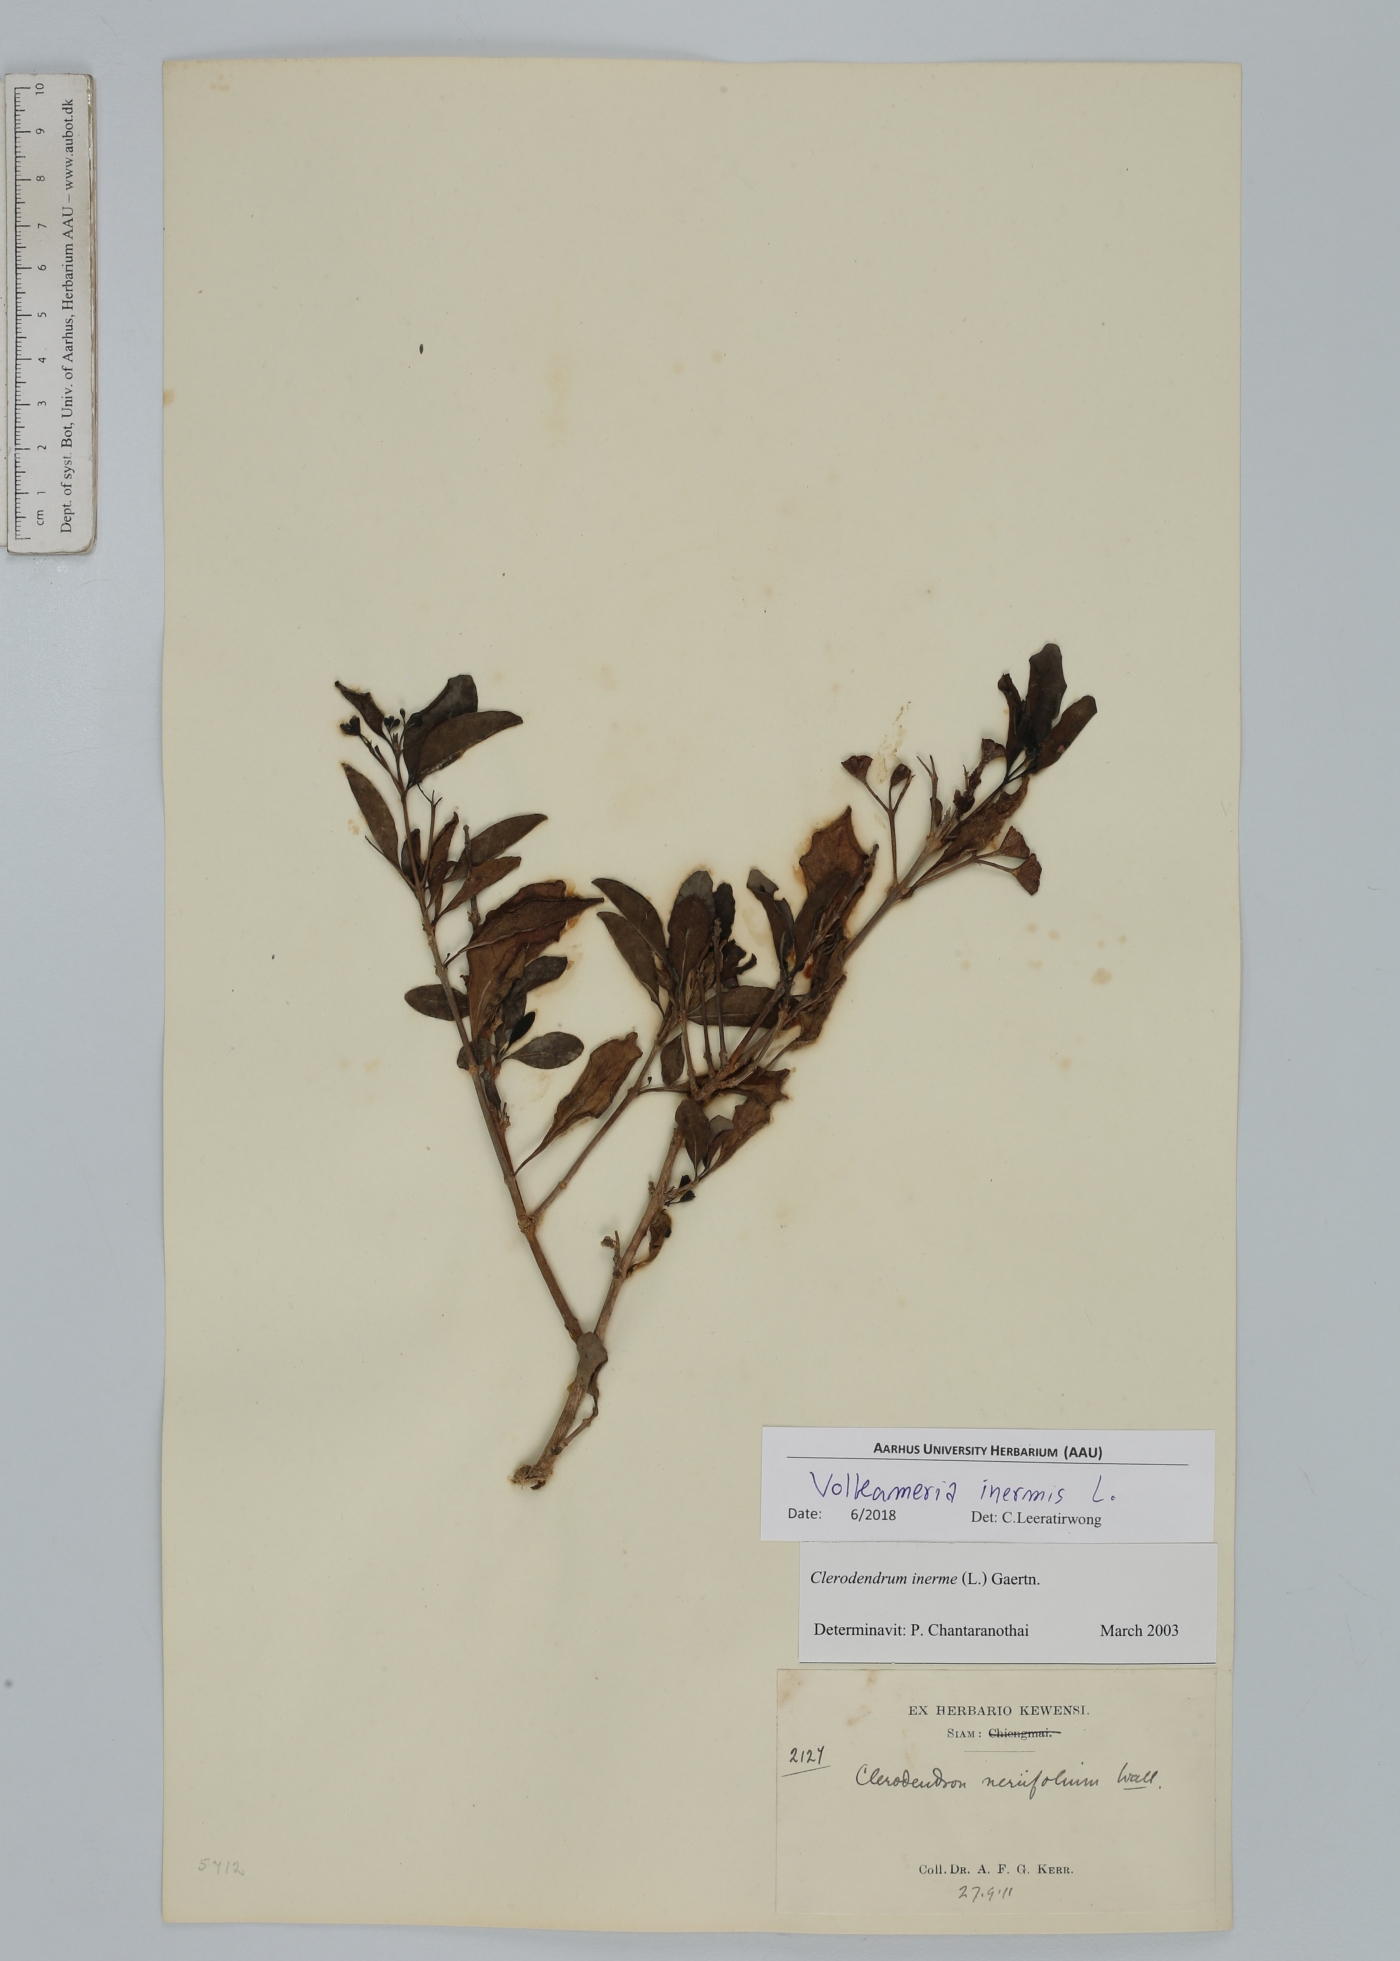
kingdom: Plantae
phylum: Tracheophyta
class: Magnoliopsida
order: Lamiales
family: Lamiaceae
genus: Volkameria
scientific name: Volkameria inermis
